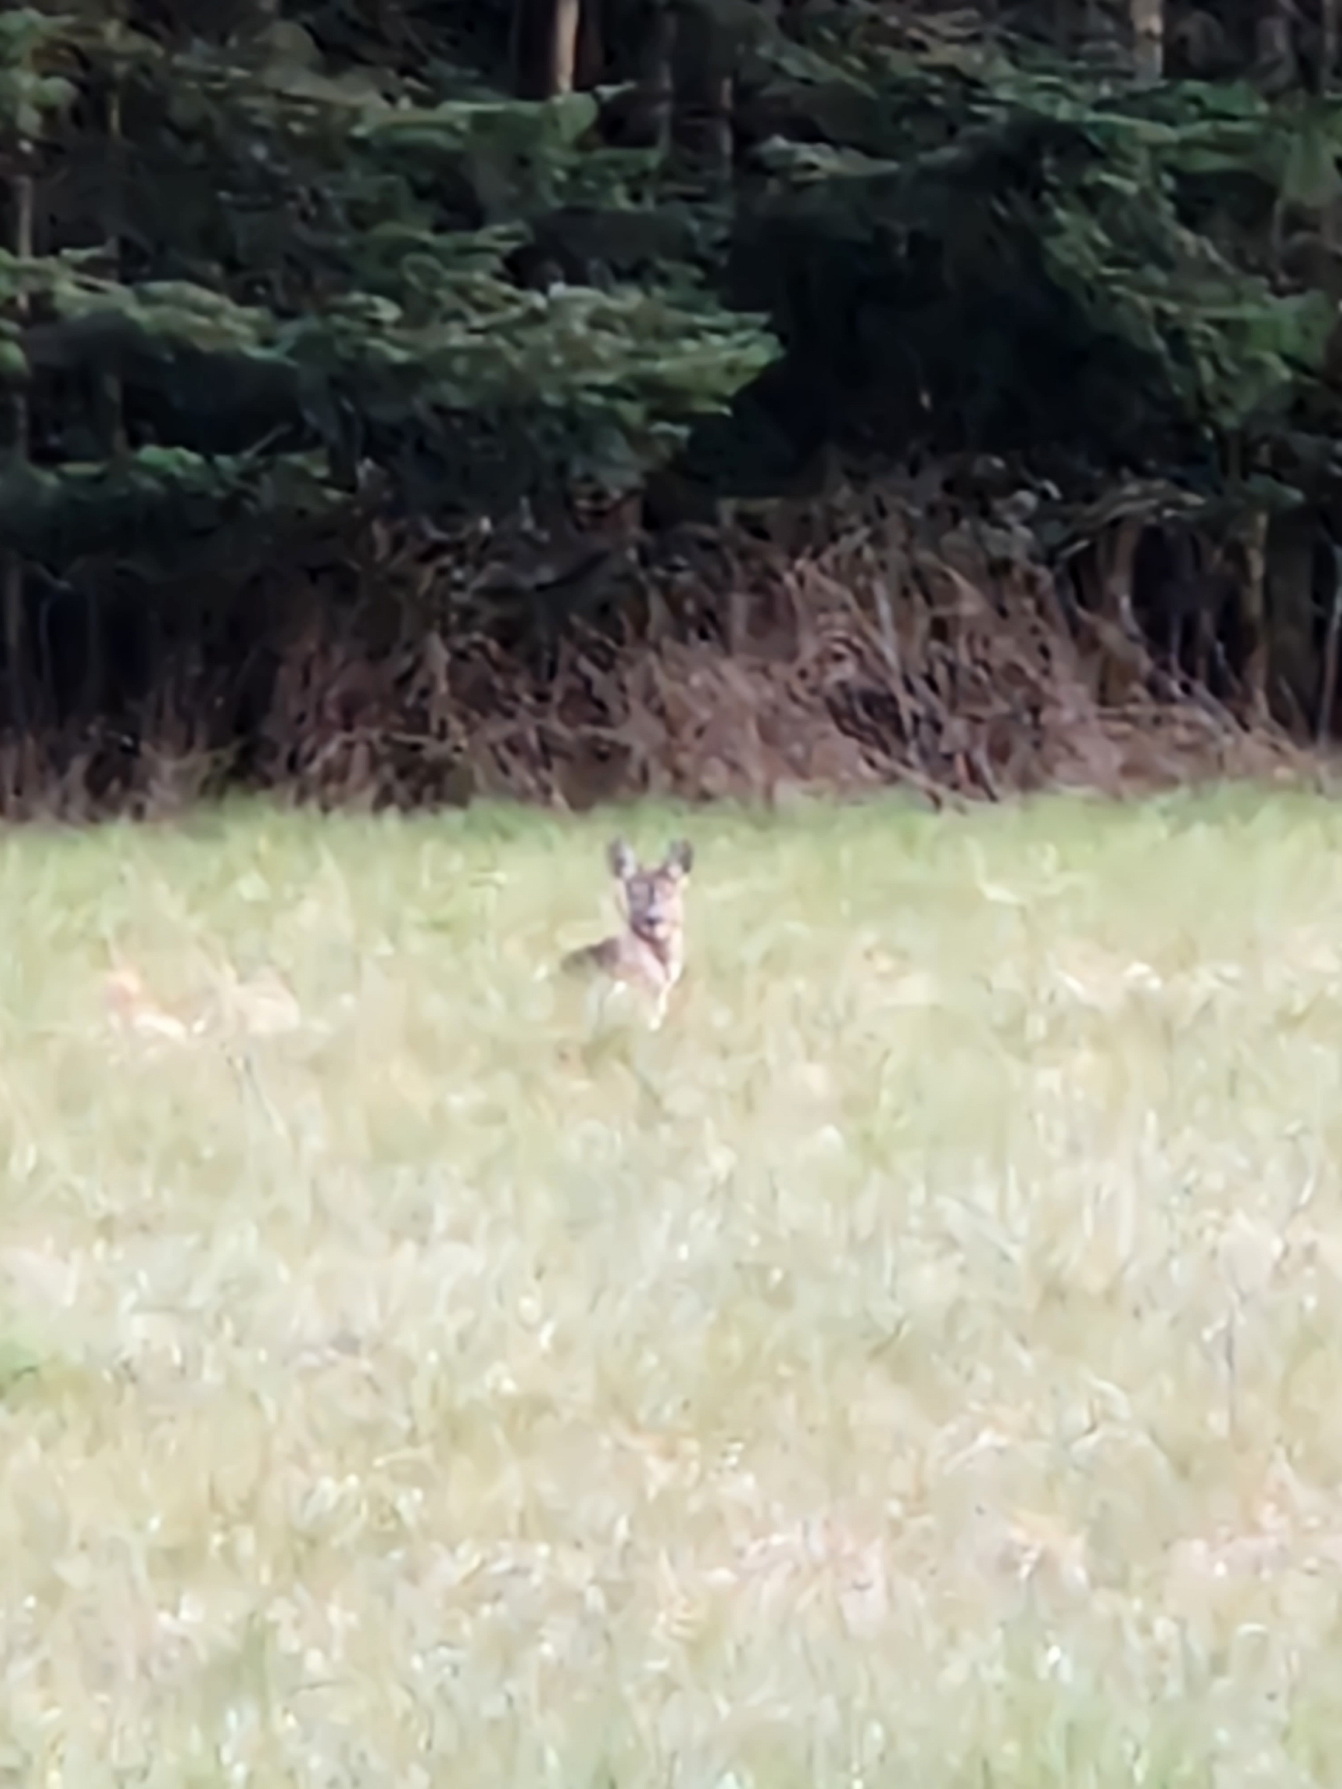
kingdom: Animalia
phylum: Chordata
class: Mammalia
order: Artiodactyla
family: Cervidae
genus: Capreolus
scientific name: Capreolus capreolus
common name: Rådyr
